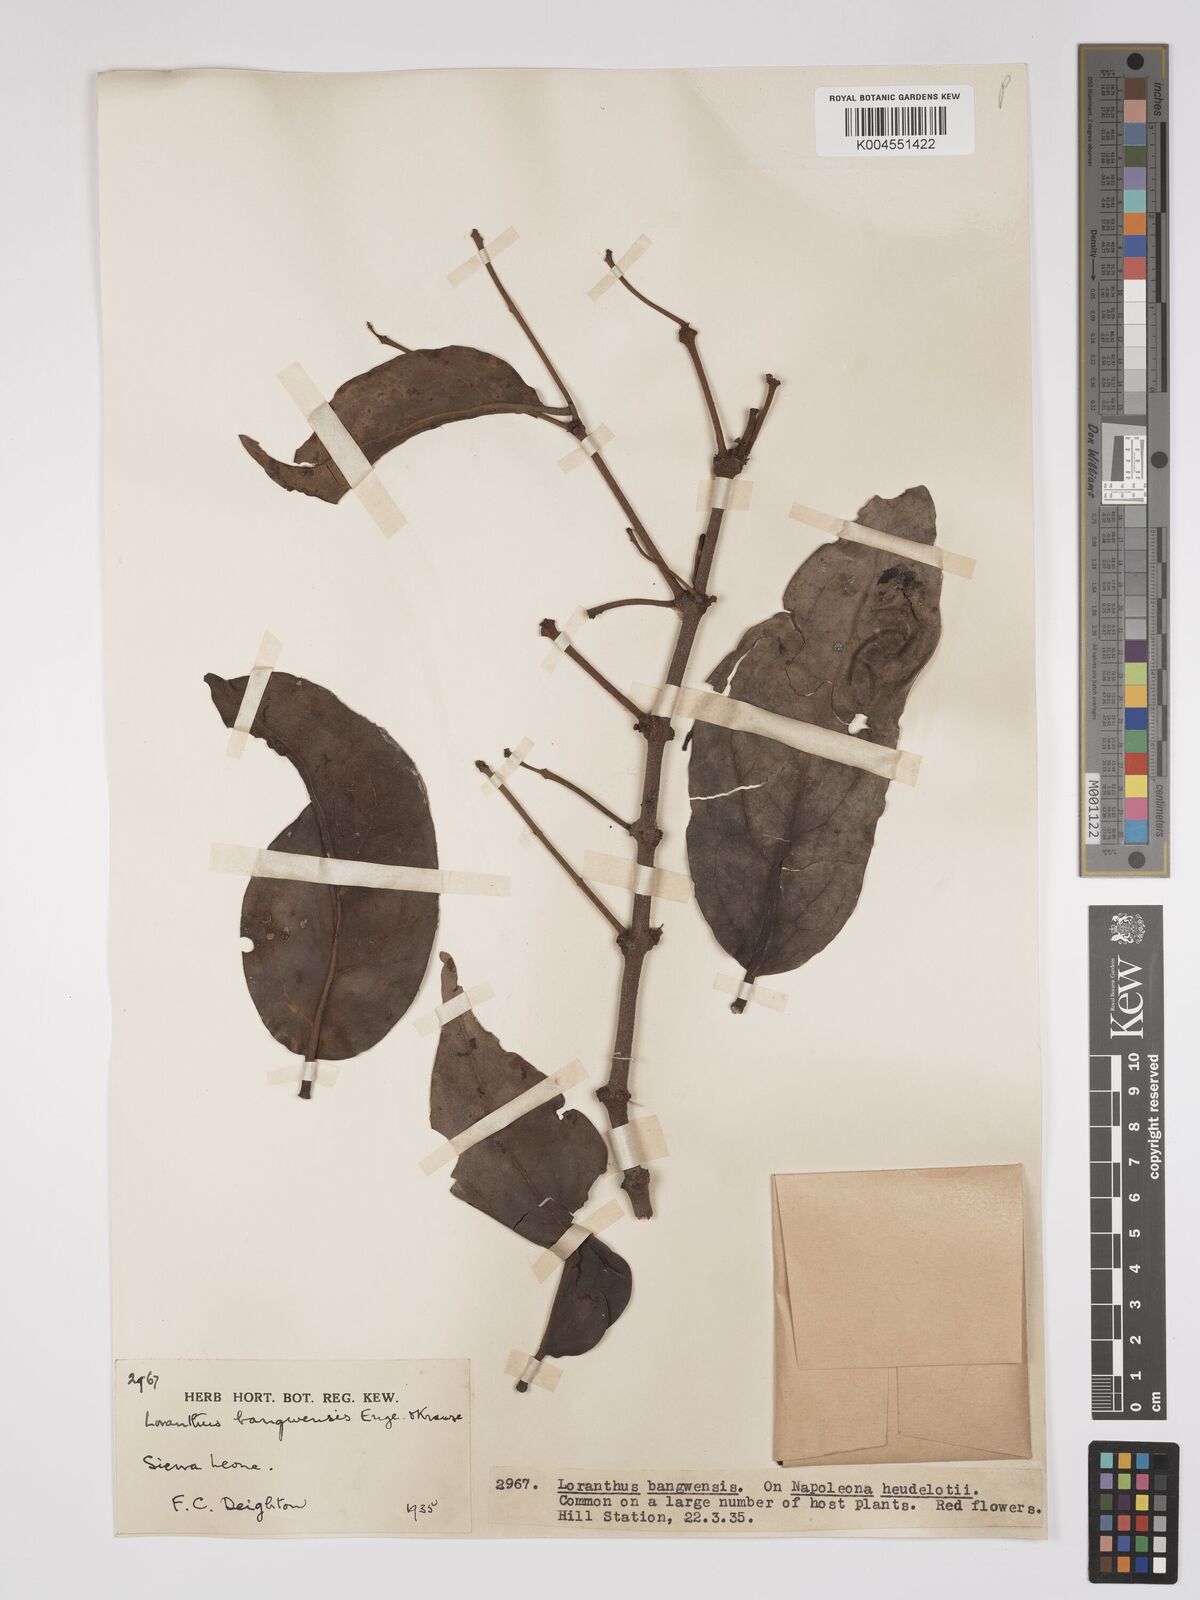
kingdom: Plantae
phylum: Tracheophyta
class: Magnoliopsida
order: Santalales
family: Loranthaceae
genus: Tapinanthus
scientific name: Tapinanthus bangwensis
